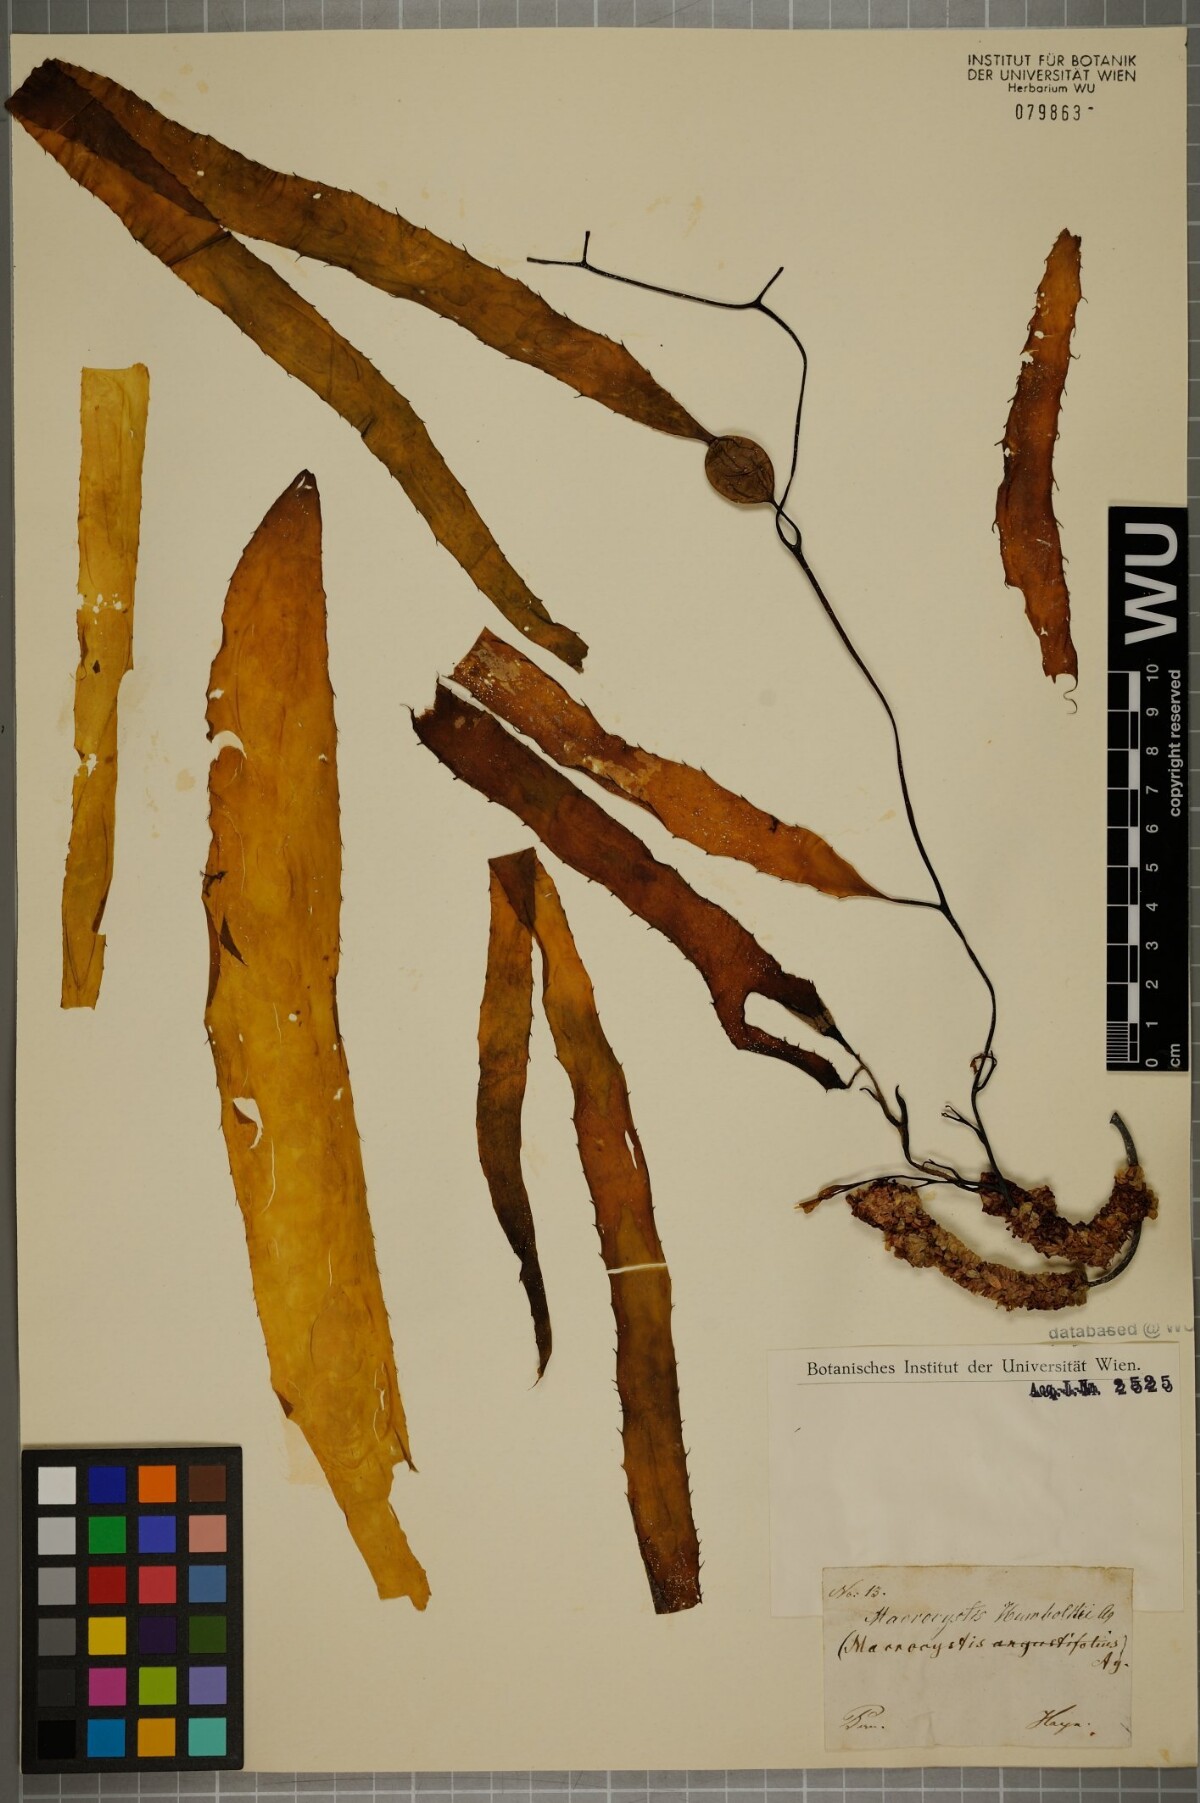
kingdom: Chromista
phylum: Ochrophyta
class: Phaeophyceae
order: Laminariales
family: Laminariaceae
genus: Macrocystis
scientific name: Macrocystis pyrifera
